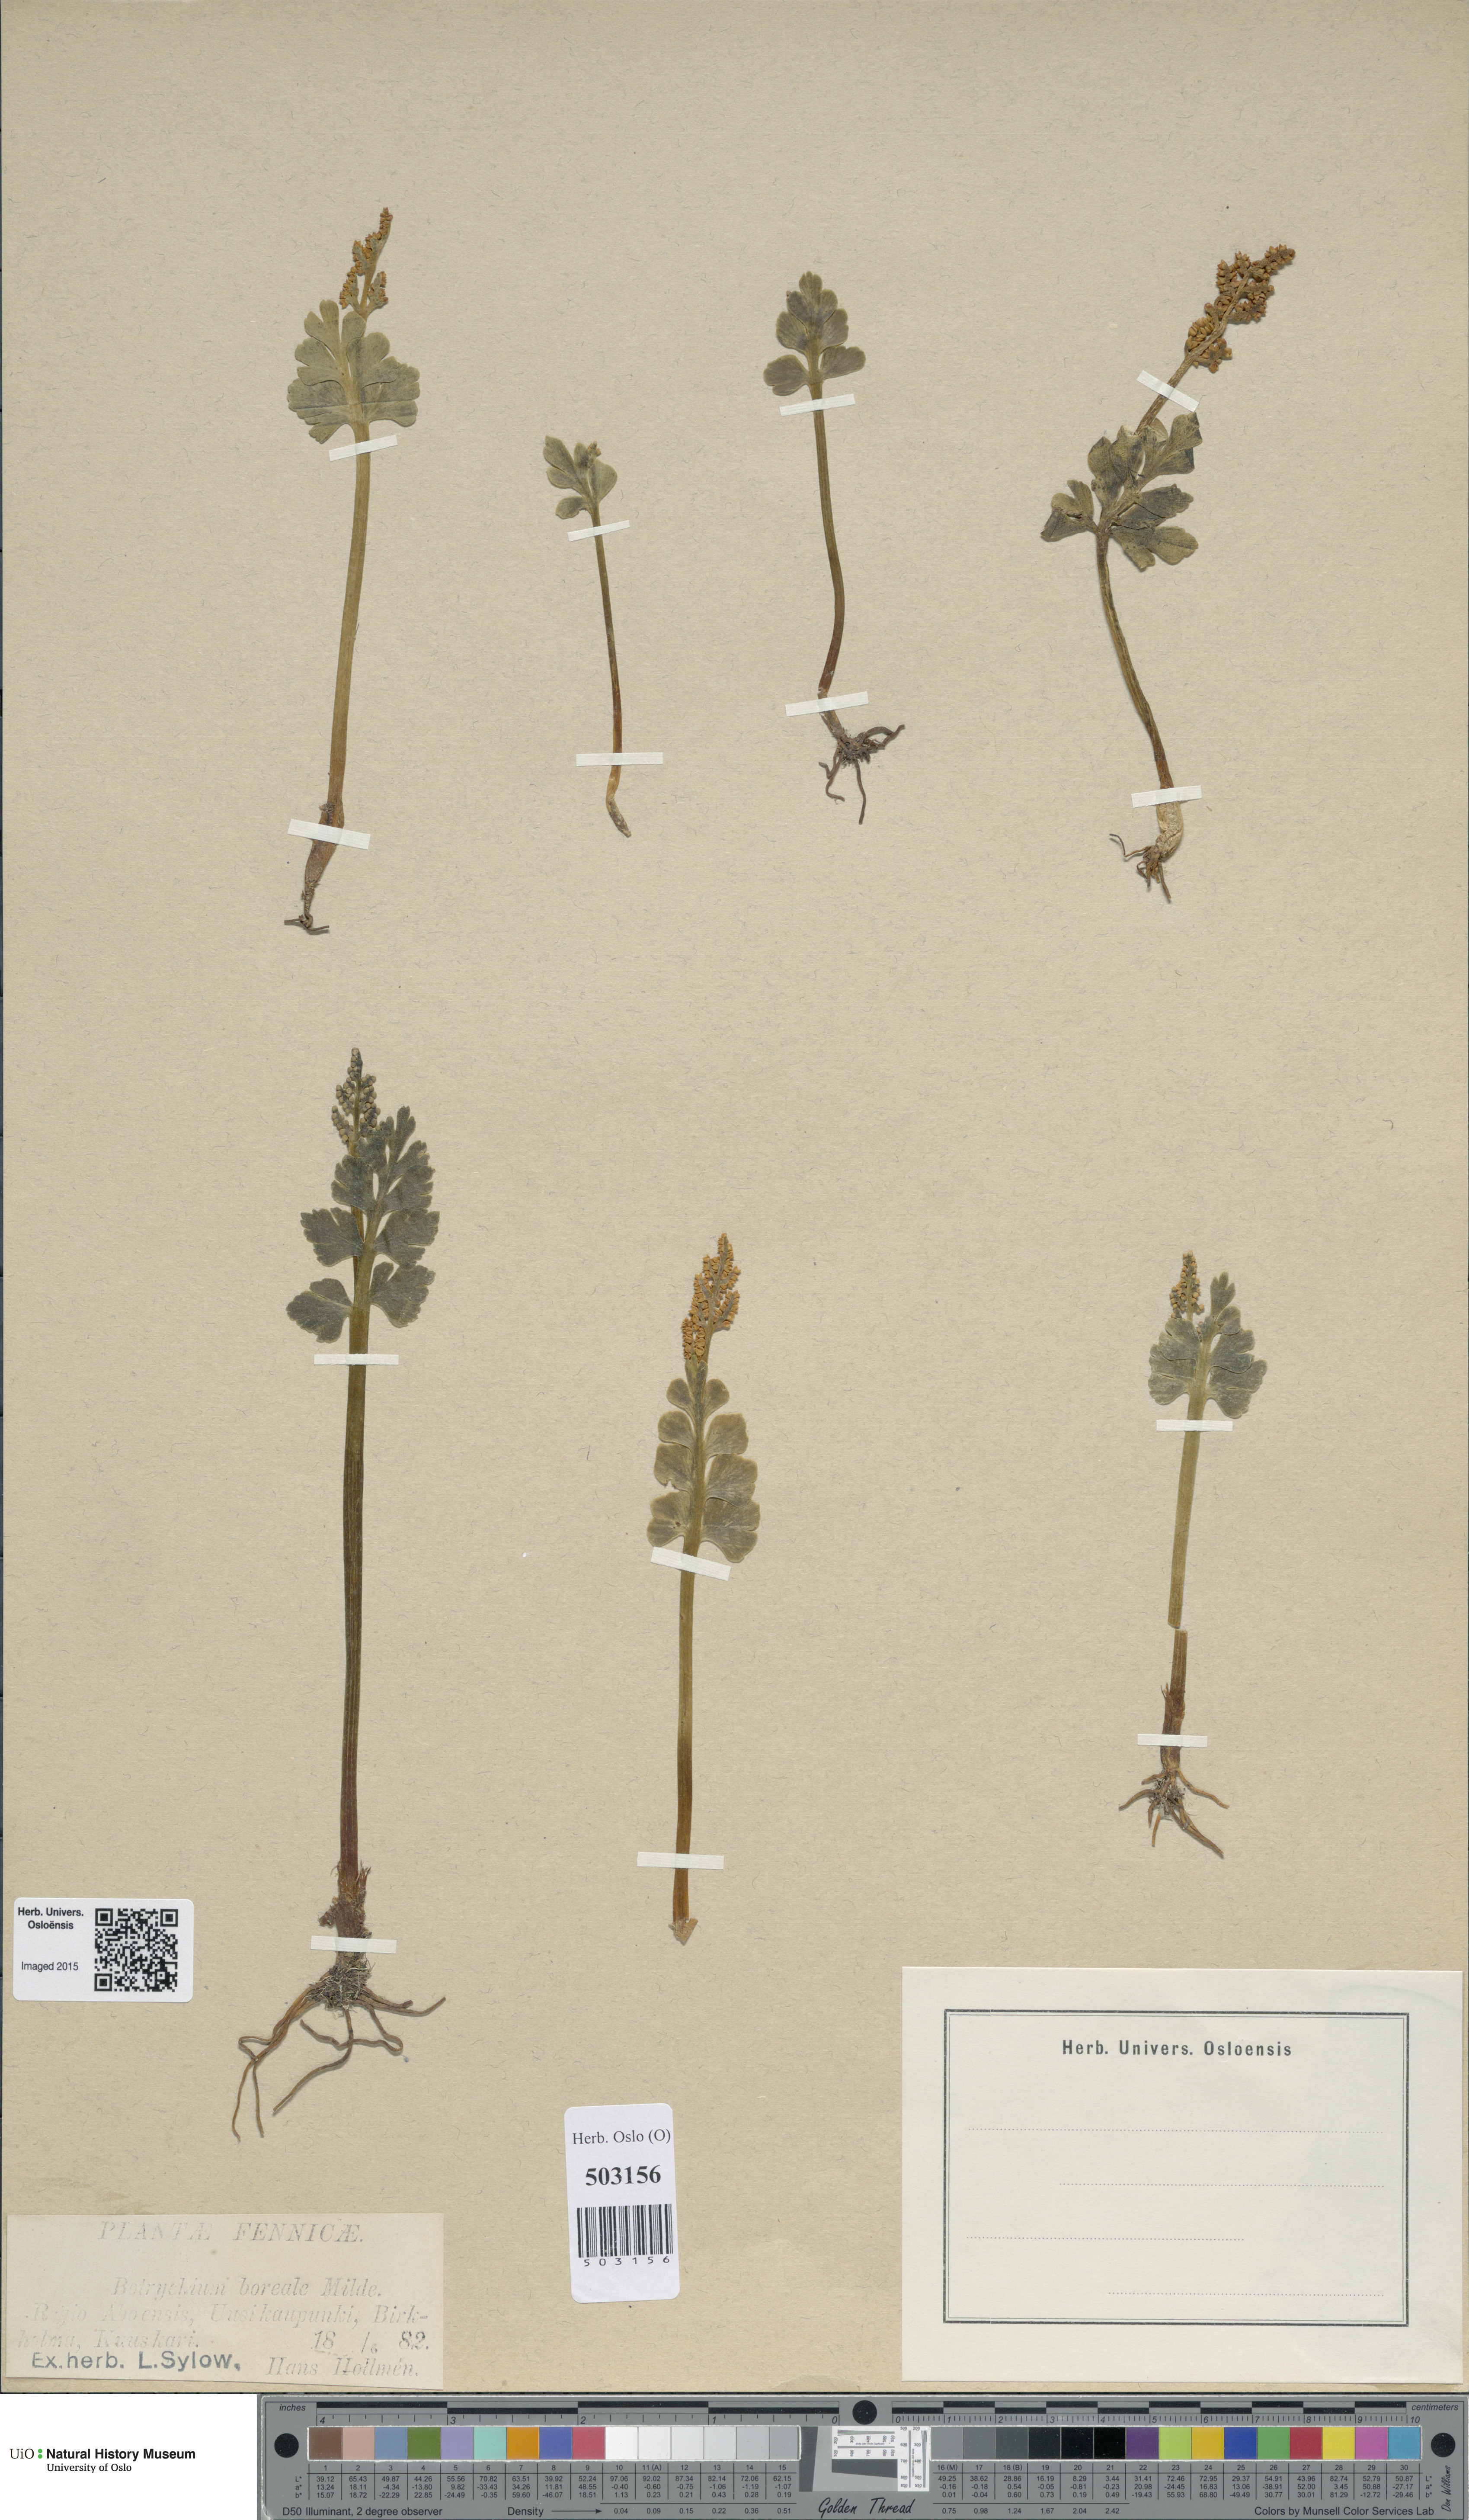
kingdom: Plantae
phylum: Tracheophyta
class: Polypodiopsida
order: Ophioglossales
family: Ophioglossaceae
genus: Botrychium
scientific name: Botrychium boreale
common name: Boreal moonwort
